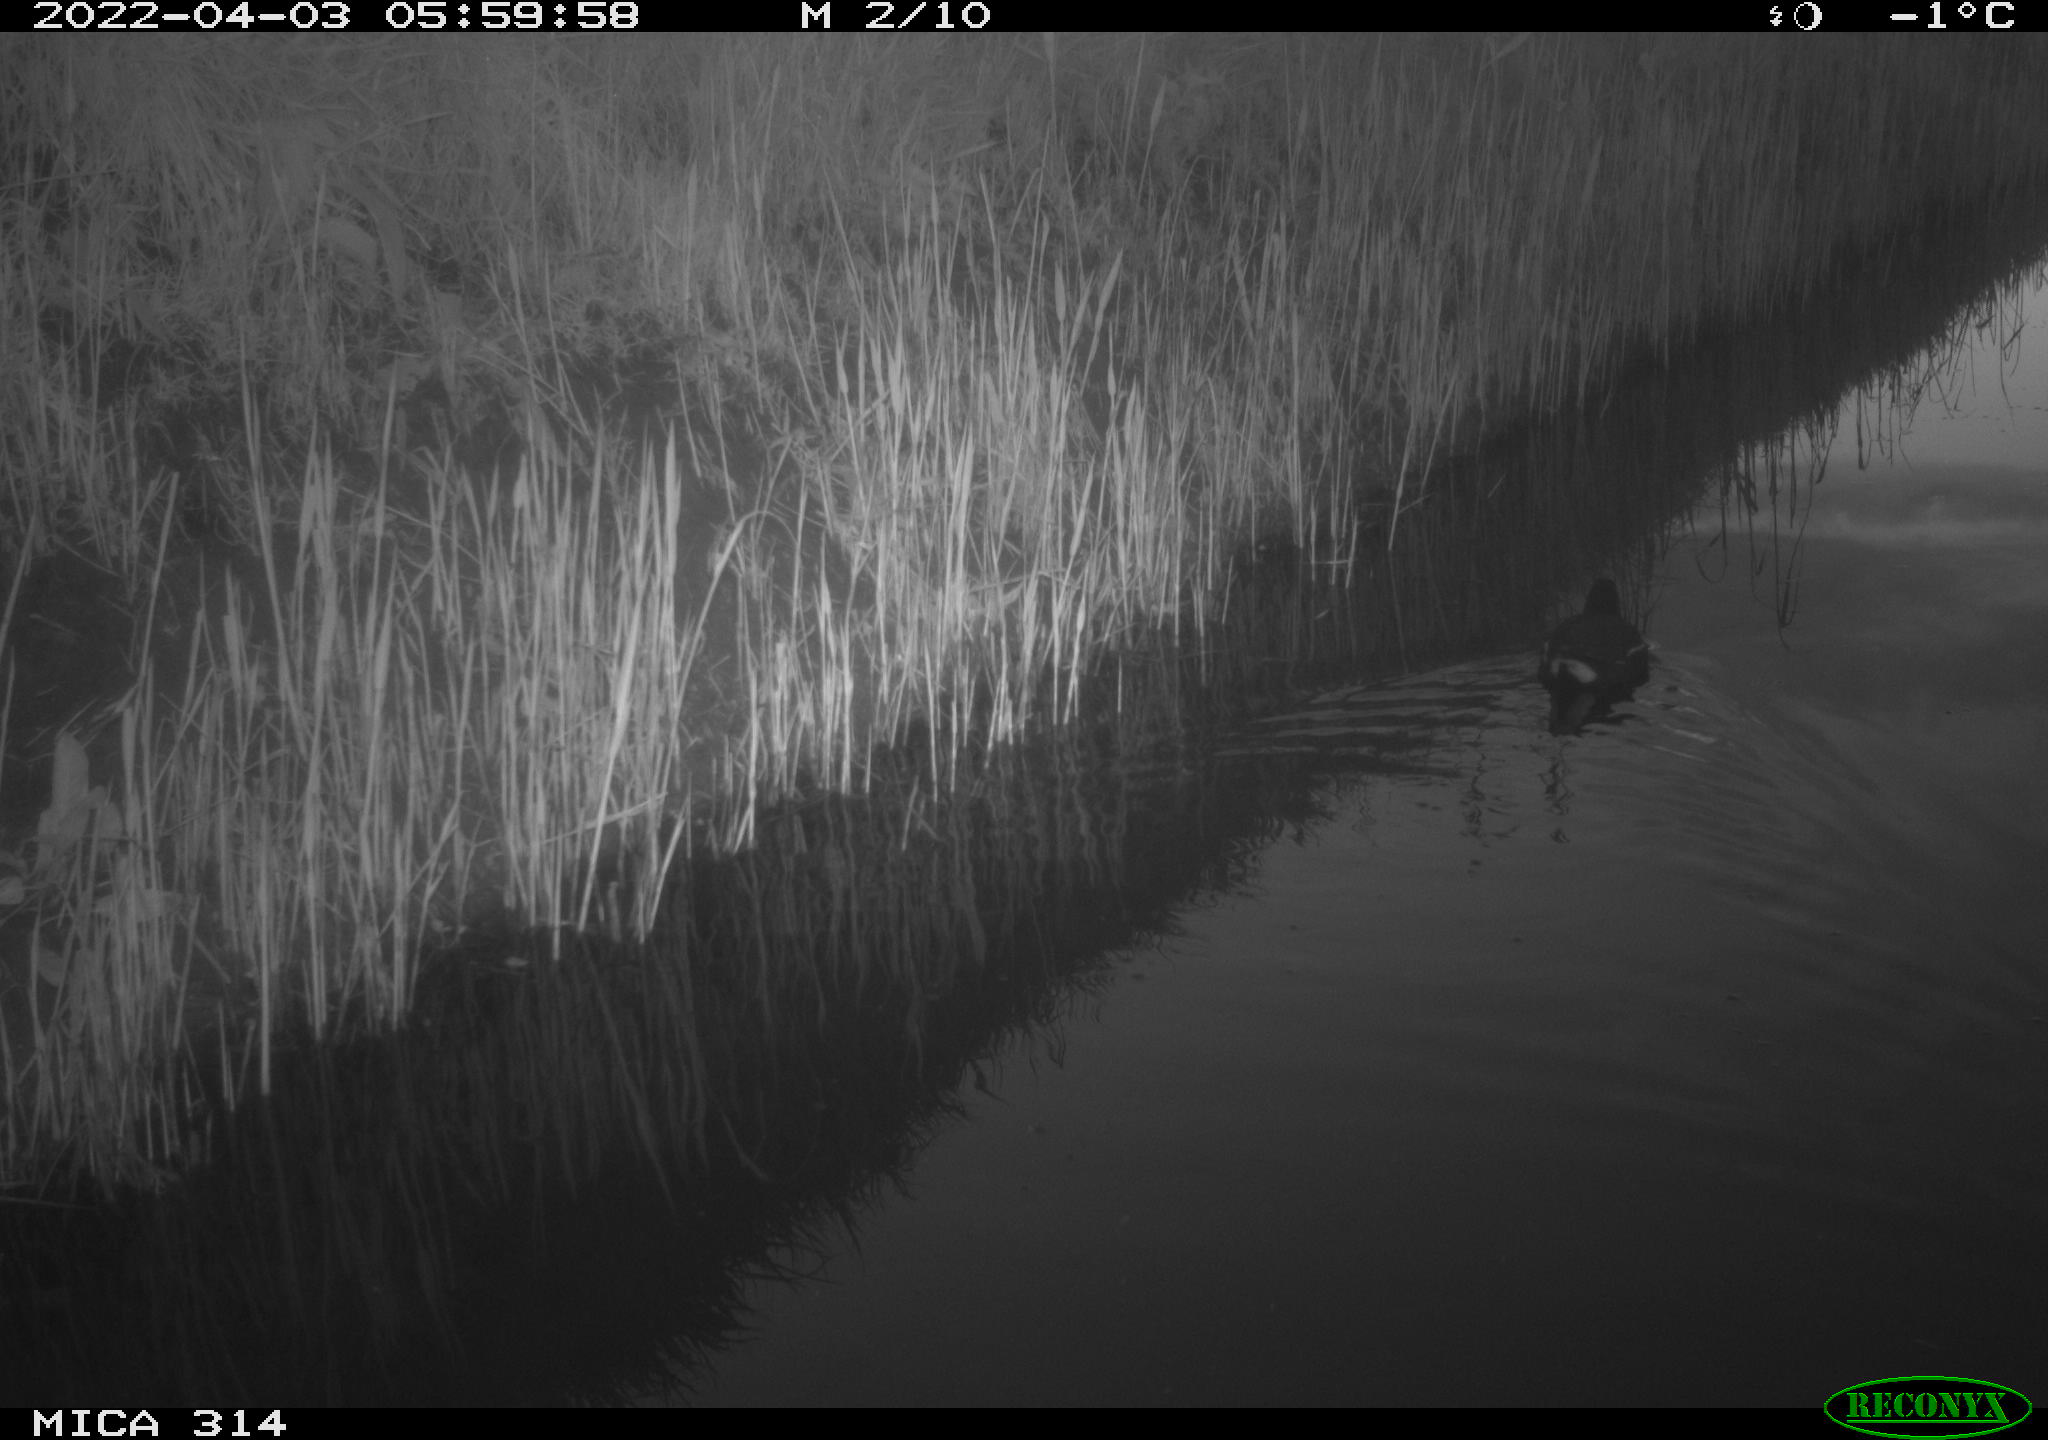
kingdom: Animalia
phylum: Chordata
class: Aves
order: Gruiformes
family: Rallidae
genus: Gallinula
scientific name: Gallinula chloropus
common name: Common moorhen
